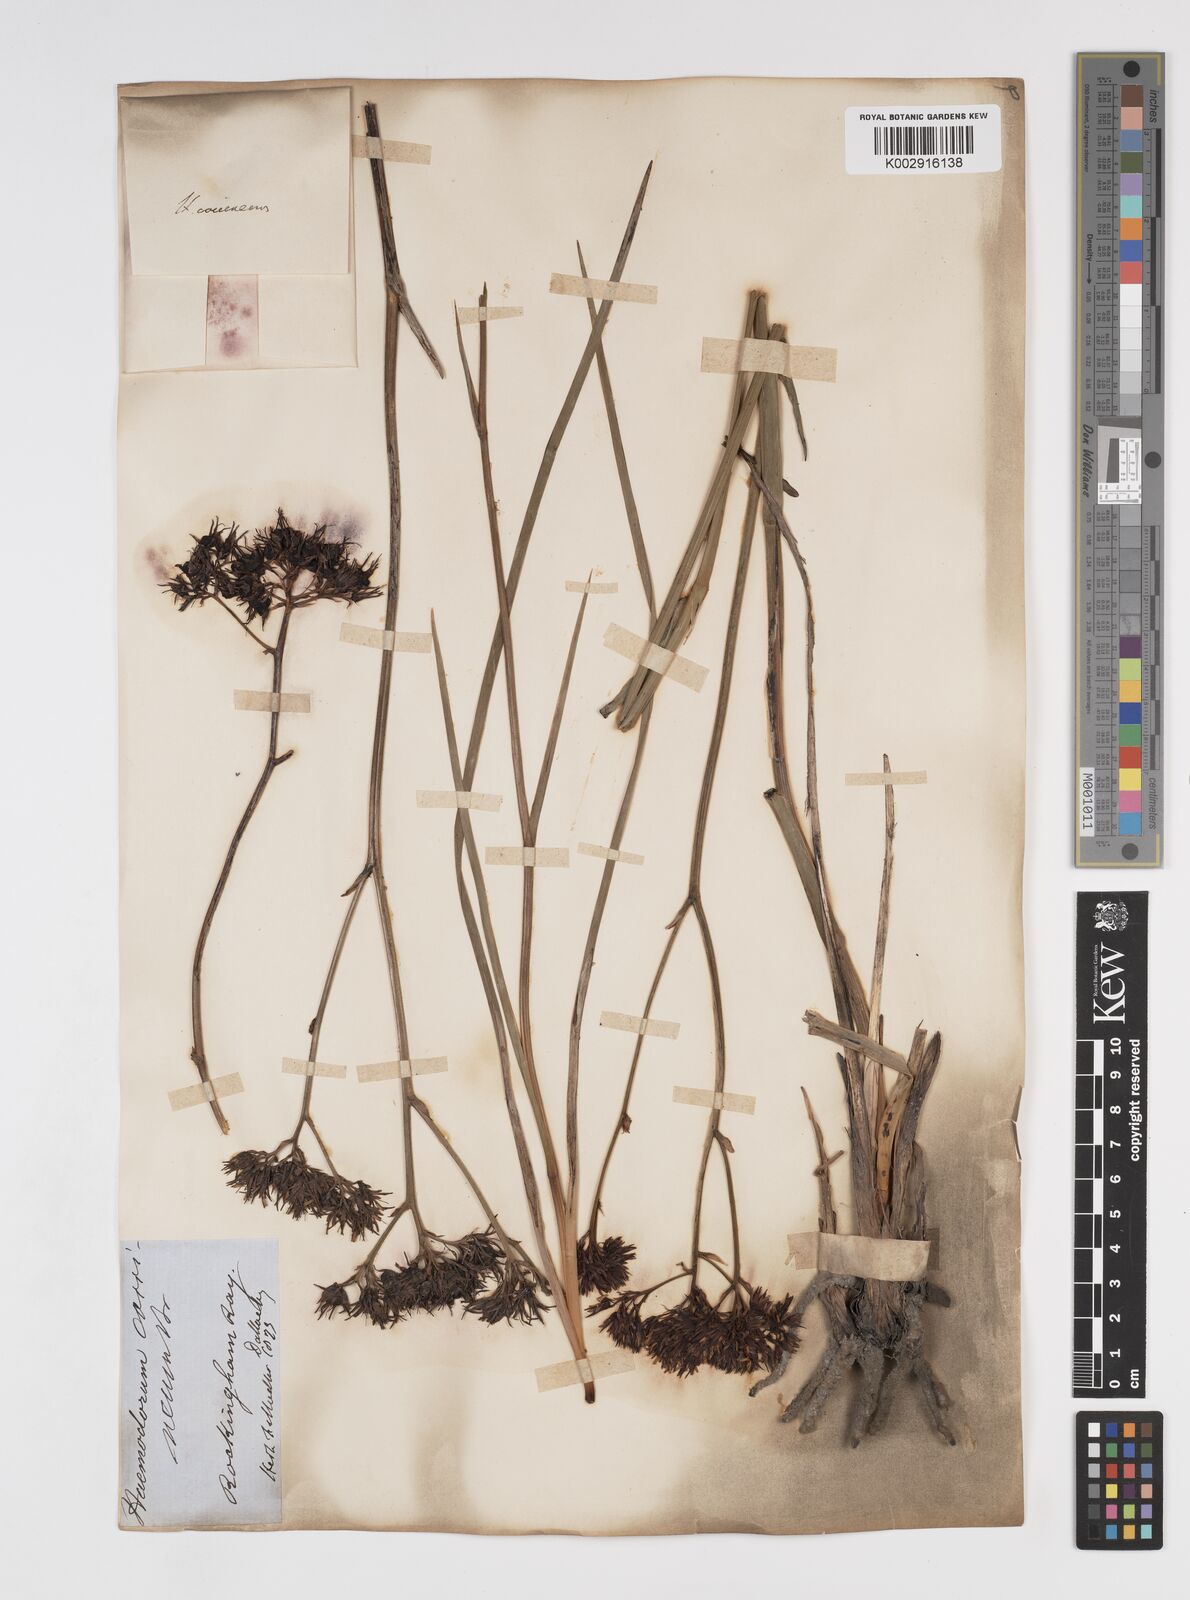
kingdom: Plantae
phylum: Tracheophyta
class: Liliopsida
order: Commelinales
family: Haemodoraceae
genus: Haemodorum
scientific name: Haemodorum coccineum
